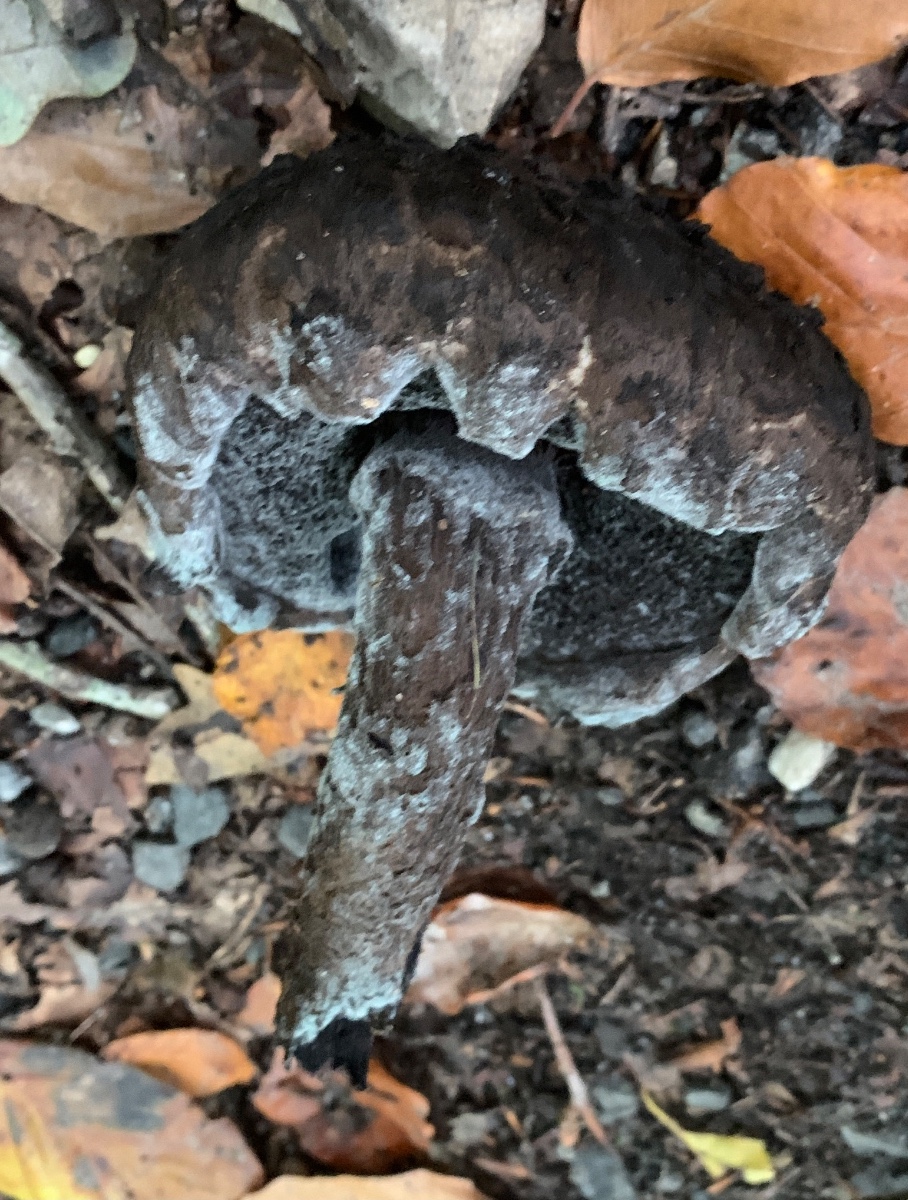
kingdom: Fungi
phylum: Basidiomycota
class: Agaricomycetes
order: Boletales
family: Boletaceae
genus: Strobilomyces
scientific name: Strobilomyces strobilaceus
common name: koglerørhat
